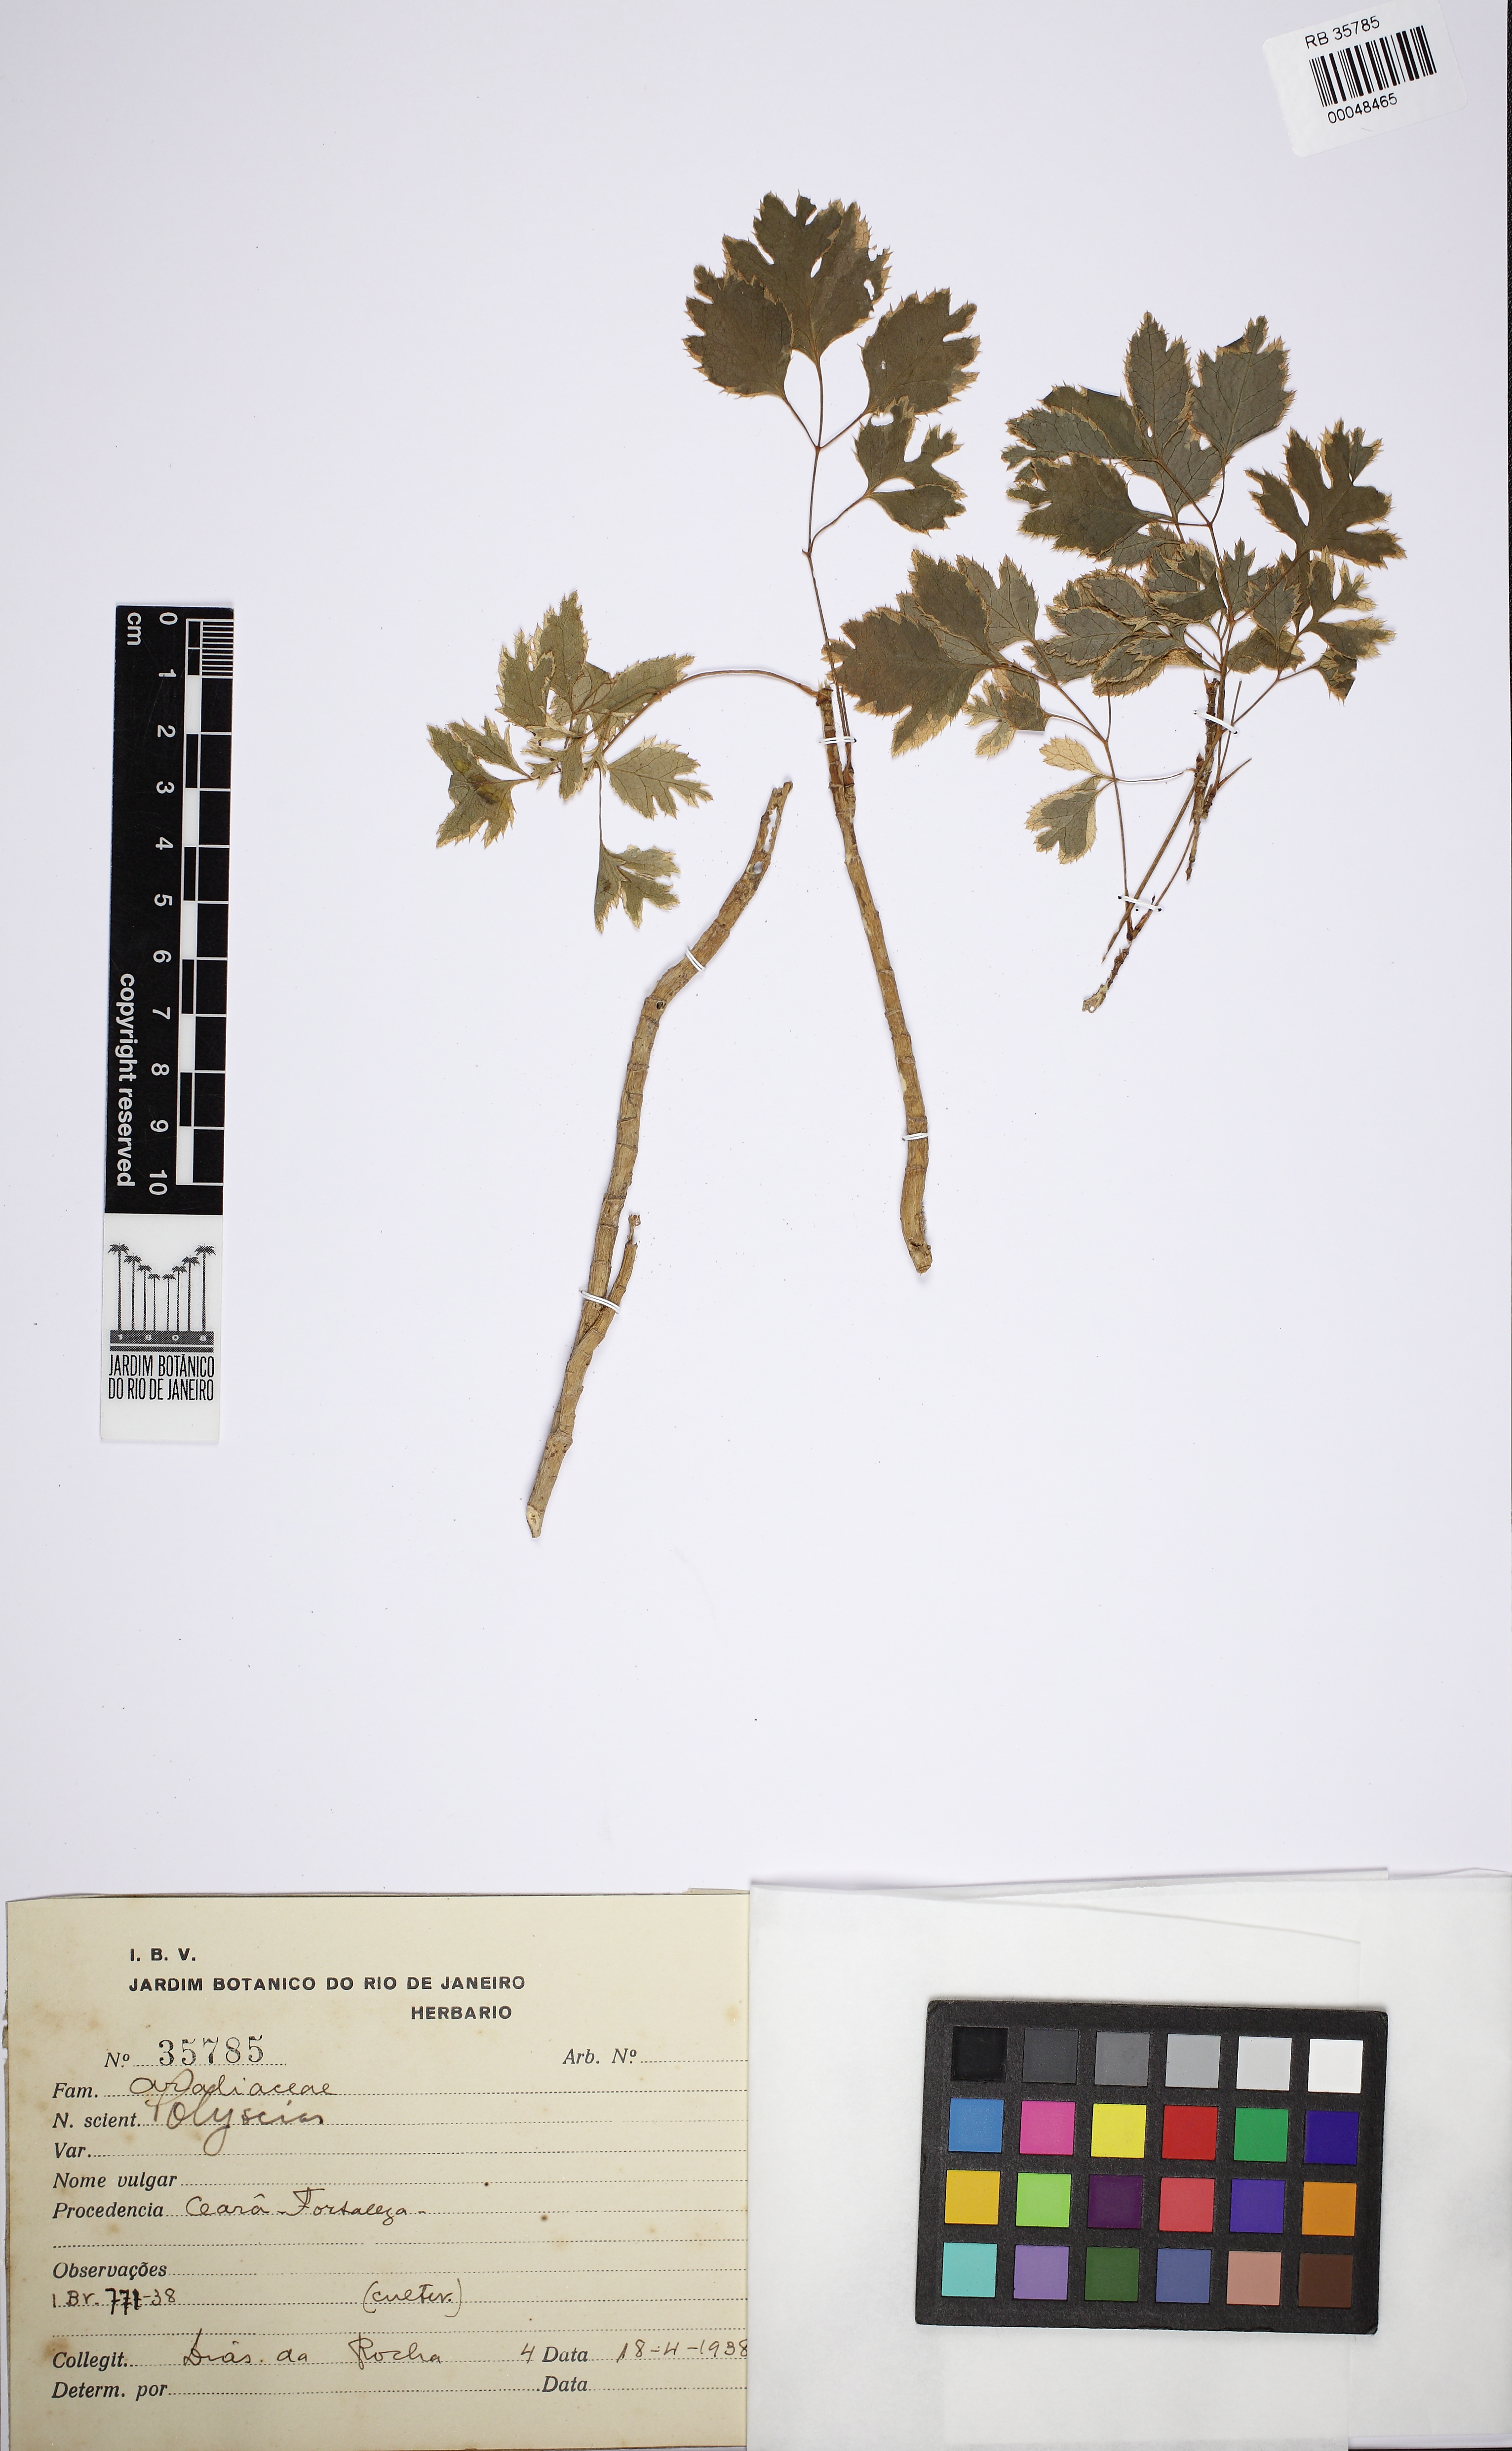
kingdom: Plantae
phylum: Tracheophyta
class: Magnoliopsida
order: Apiales
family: Araliaceae
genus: Polyscias
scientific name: Polyscias
